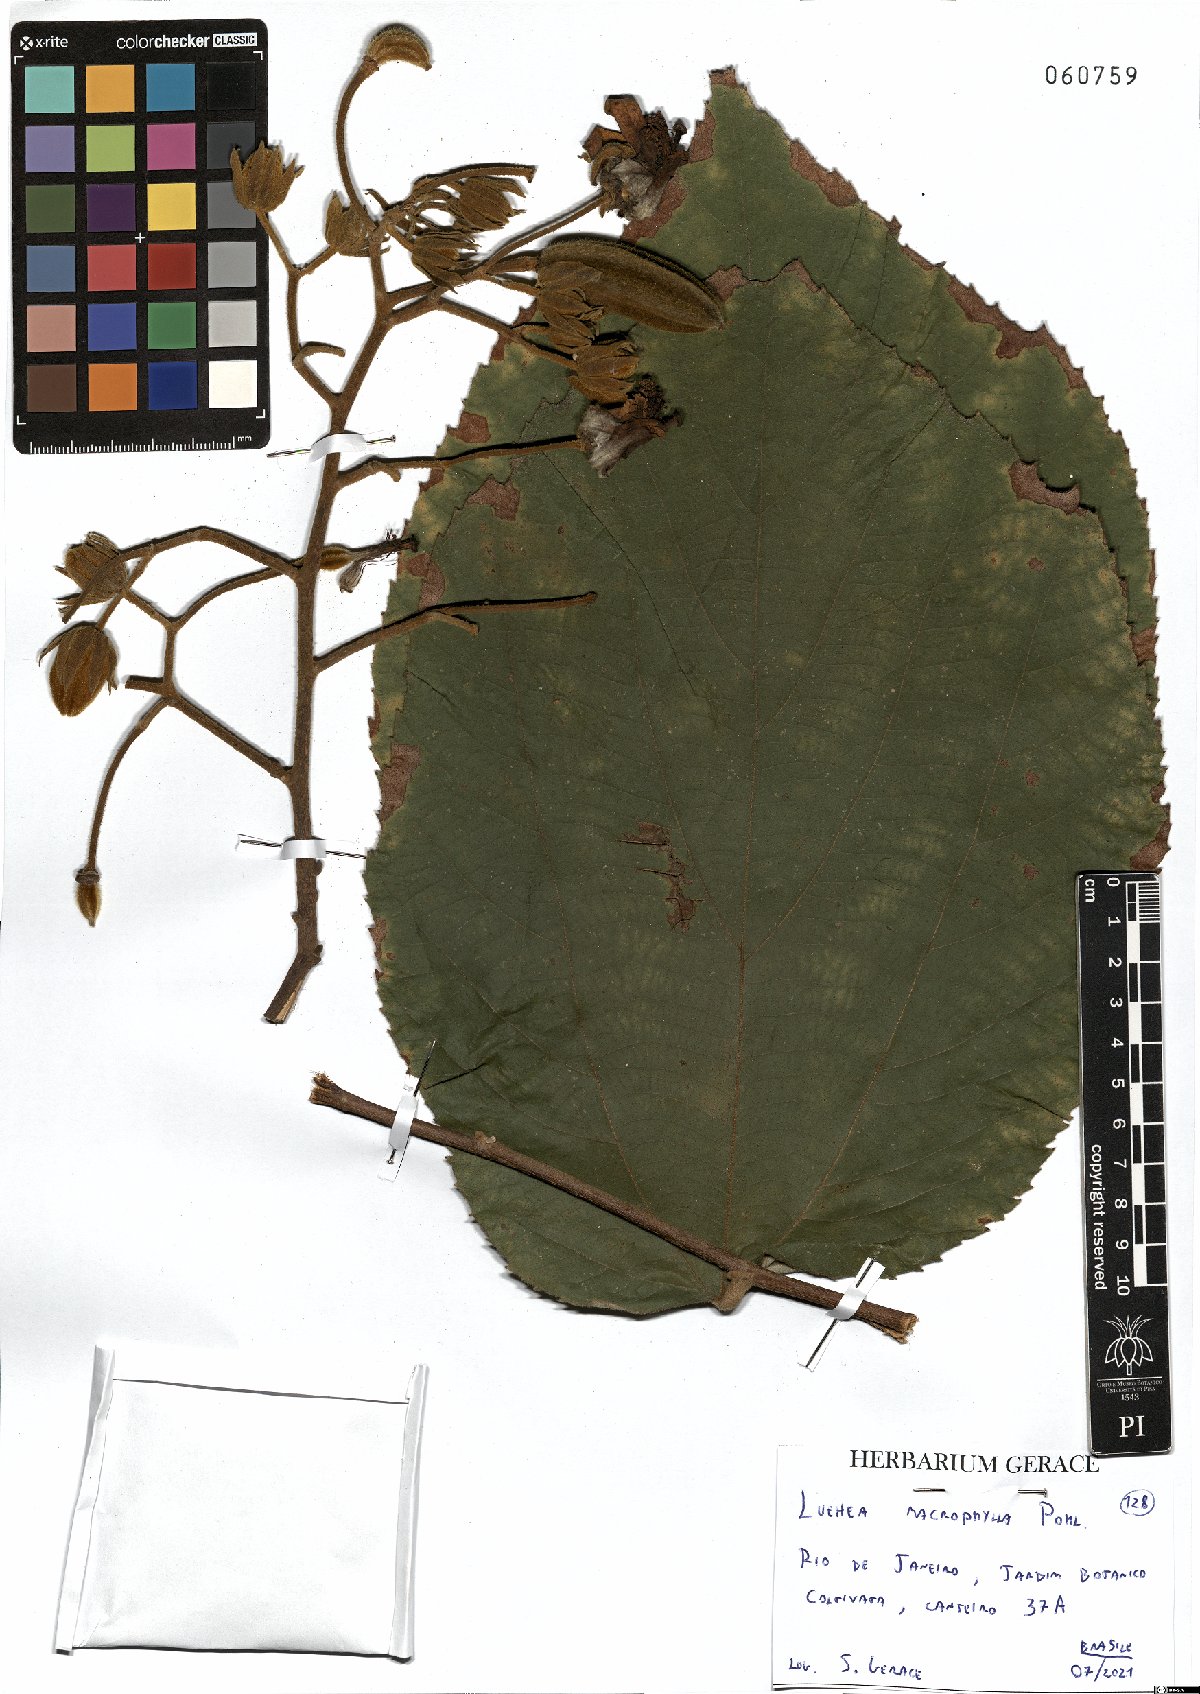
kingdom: Plantae
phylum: Tracheophyta
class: Magnoliopsida
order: Malvales
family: Malvaceae
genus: Luehea
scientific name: Luehea rufescens
